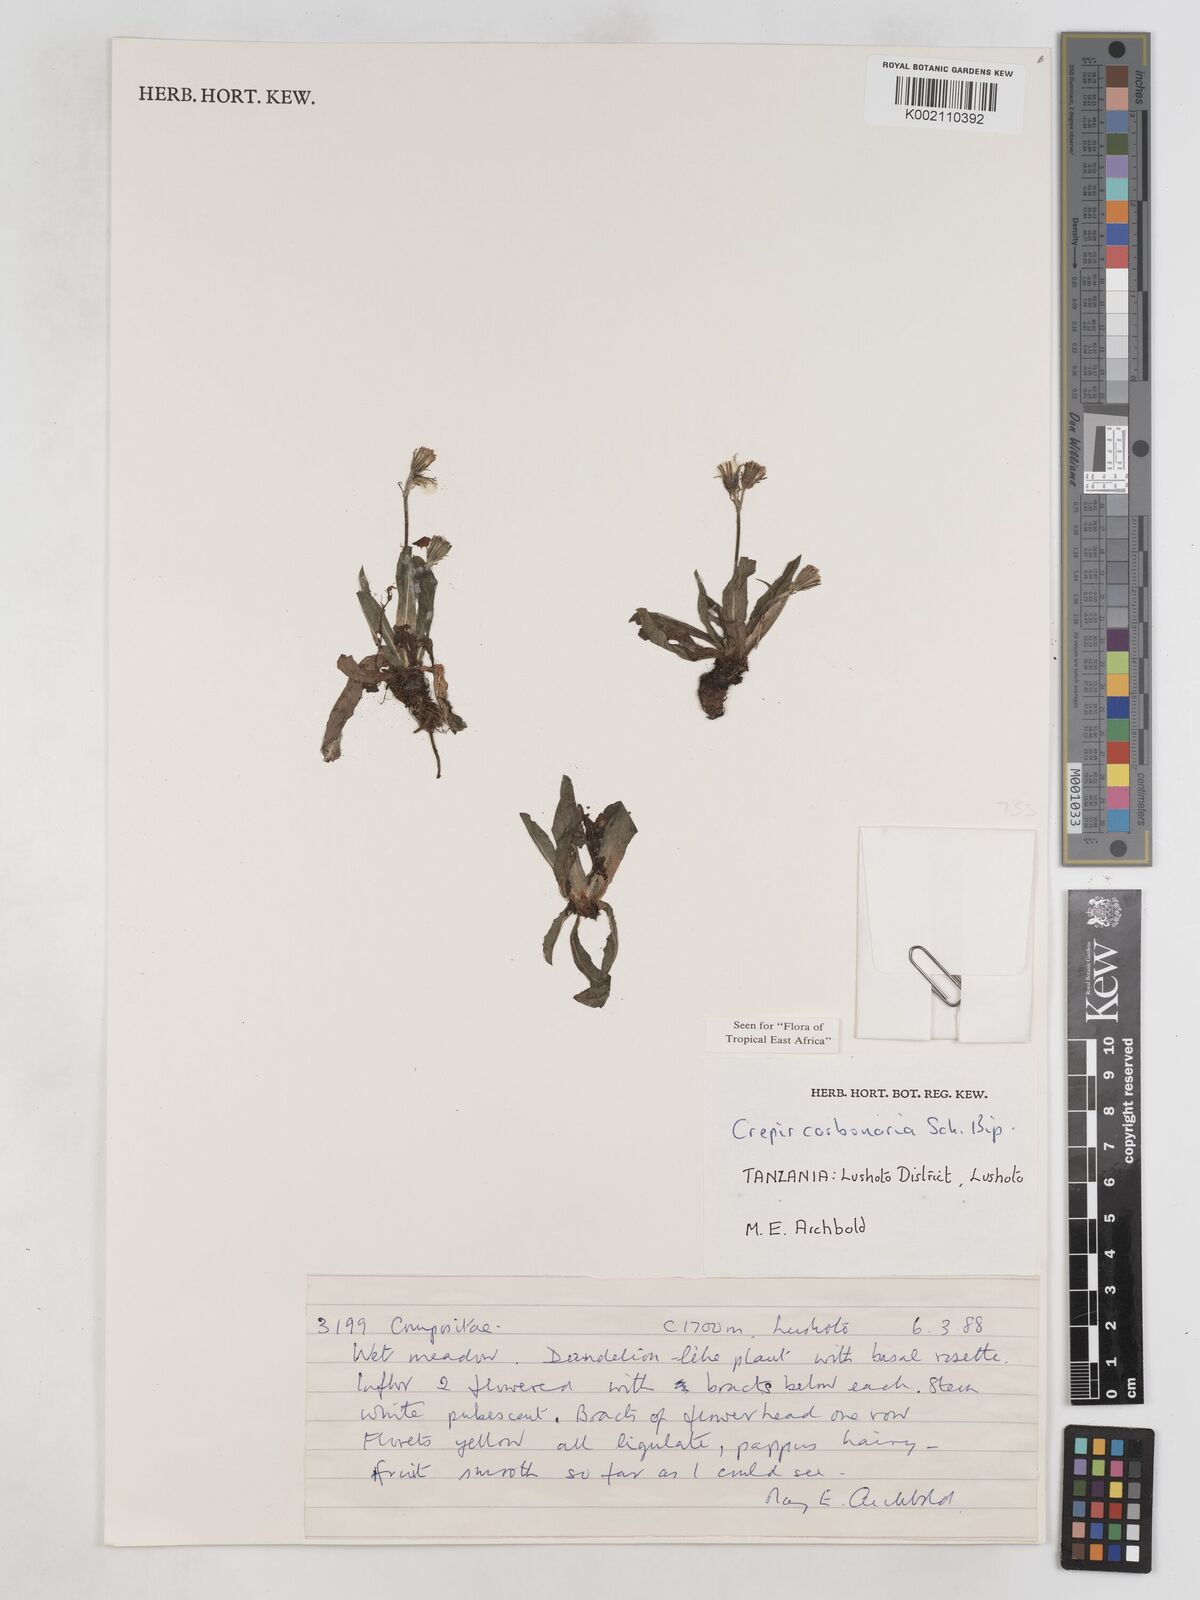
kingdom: Plantae
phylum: Tracheophyta
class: Magnoliopsida
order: Asterales
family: Asteraceae
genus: Crepis
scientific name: Crepis carbonaria
